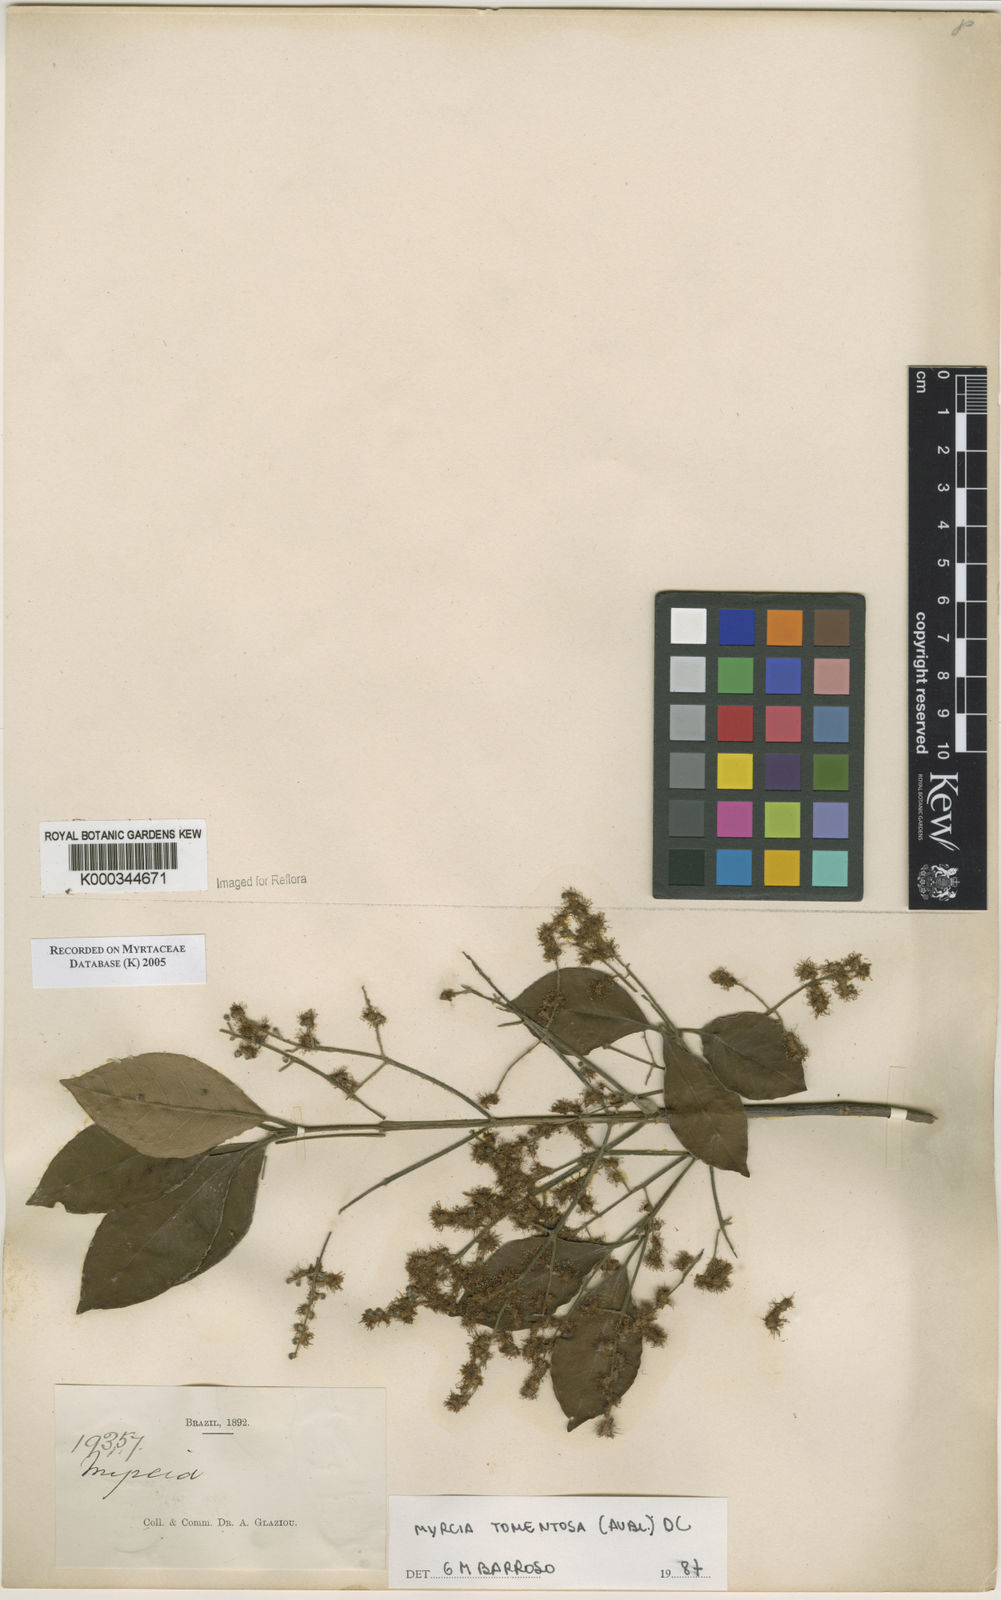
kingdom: Plantae
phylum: Tracheophyta
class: Magnoliopsida
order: Myrtales
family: Myrtaceae
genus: Myrcia
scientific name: Myrcia tomentosa
